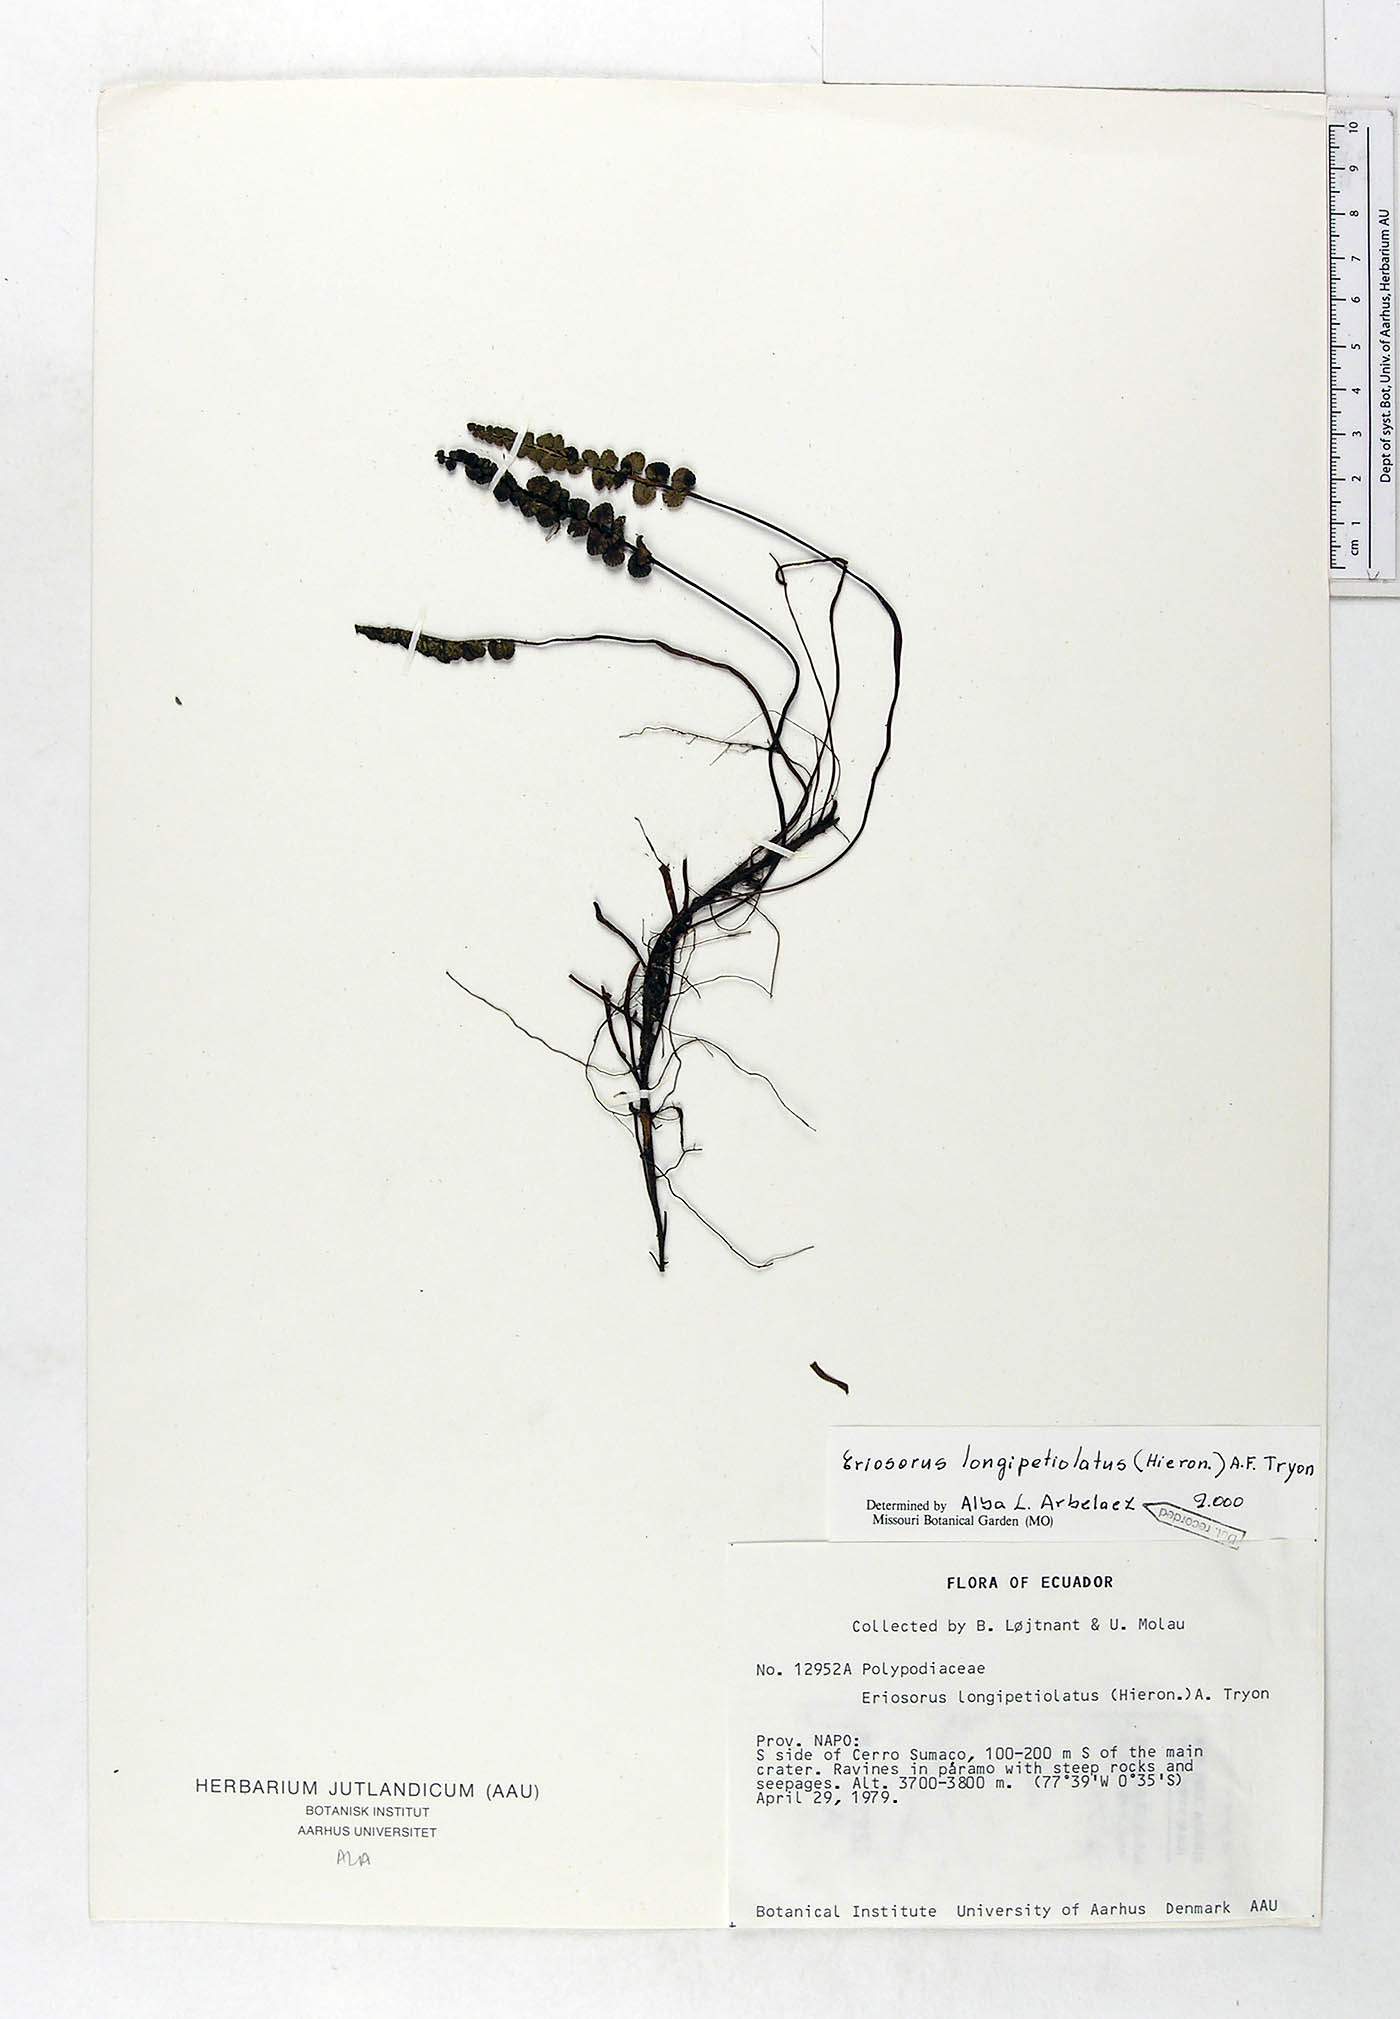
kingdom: Plantae
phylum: Tracheophyta
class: Polypodiopsida
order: Polypodiales
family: Pteridaceae
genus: Jamesonia
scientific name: Jamesonia longipetiolata
